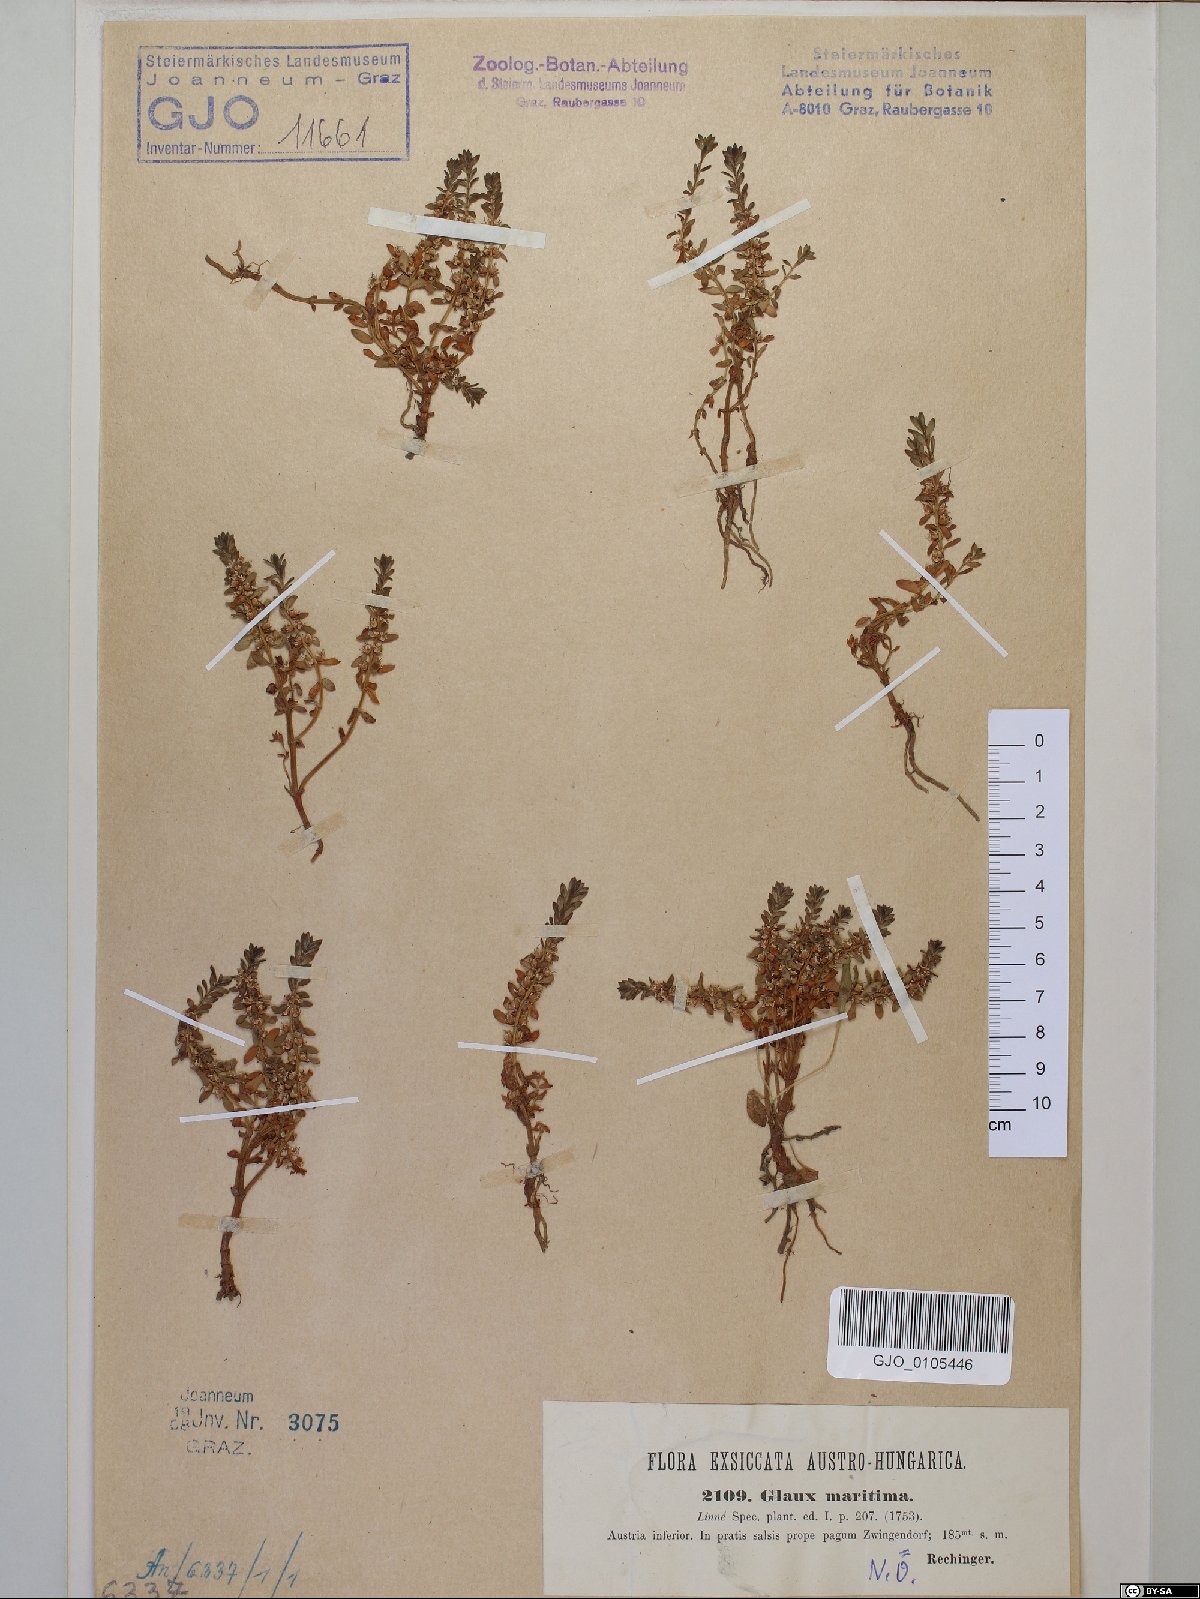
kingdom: Plantae
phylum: Tracheophyta
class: Magnoliopsida
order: Ericales
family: Primulaceae
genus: Lysimachia
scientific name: Lysimachia maritima
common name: Sea milkwort
